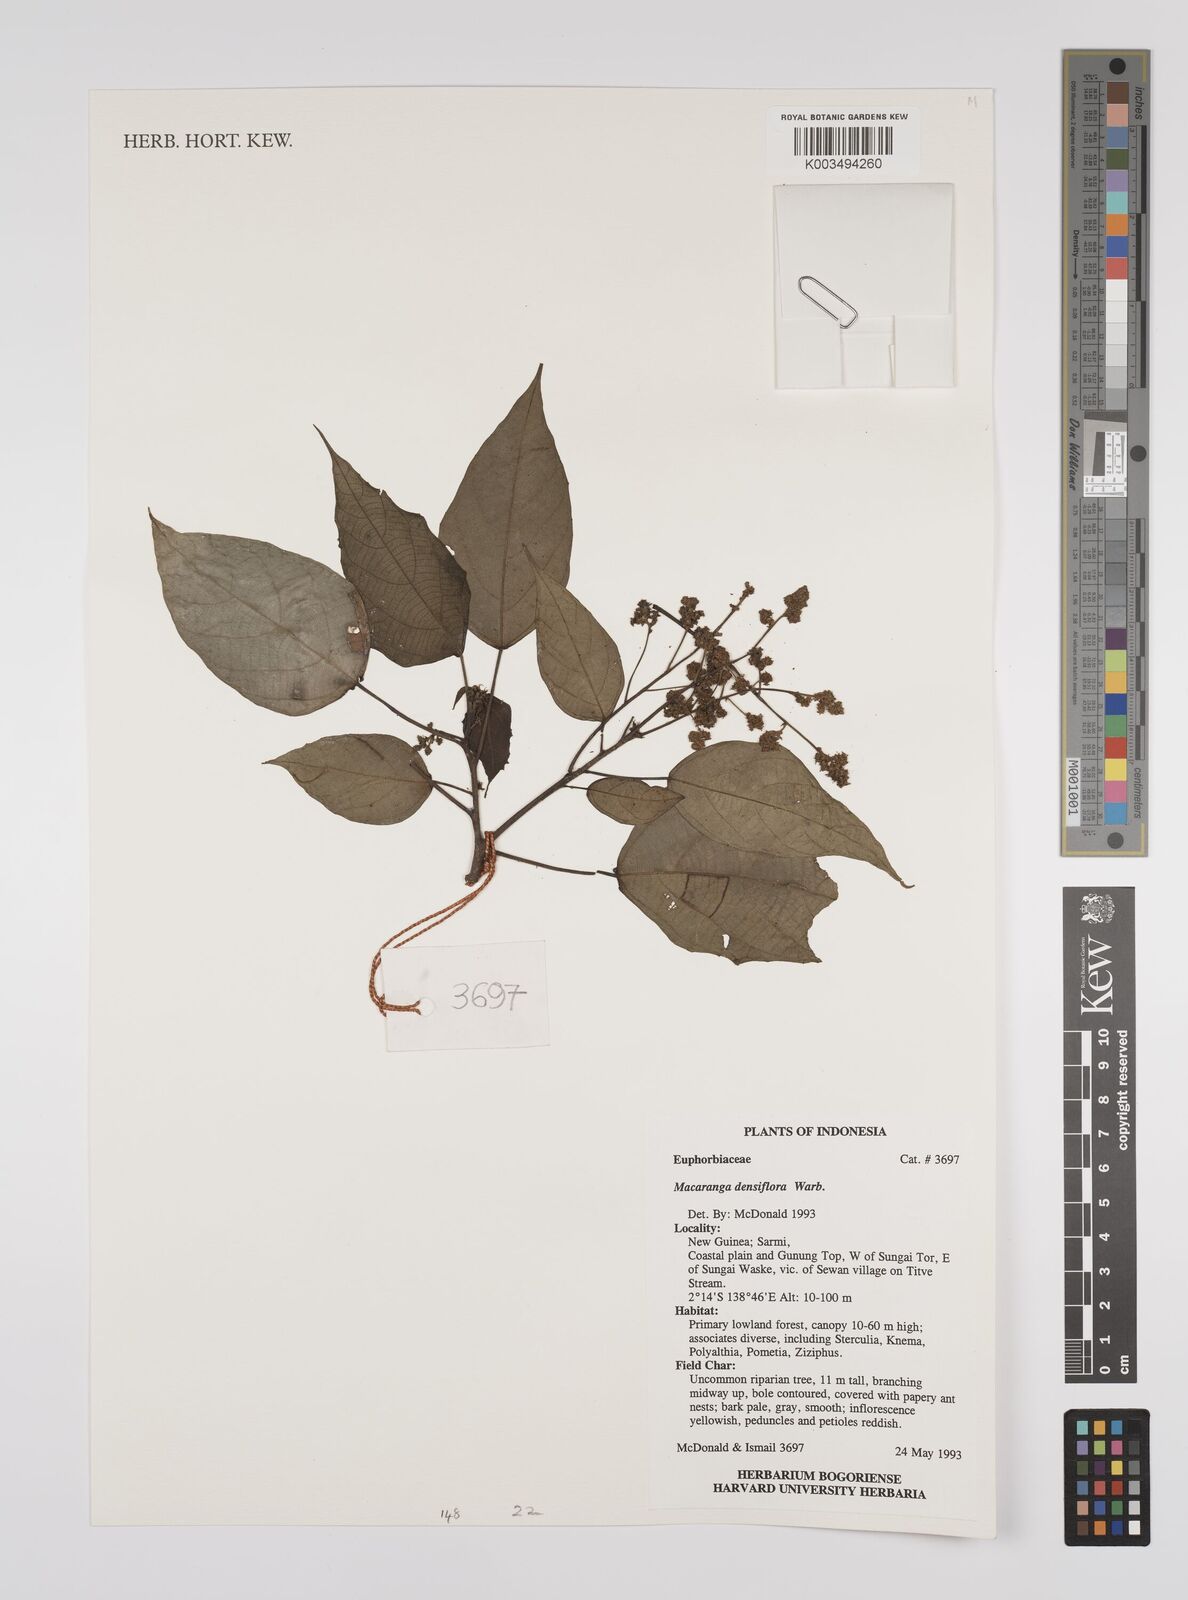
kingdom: Plantae
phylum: Tracheophyta
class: Magnoliopsida
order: Malpighiales
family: Euphorbiaceae
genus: Macaranga
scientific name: Macaranga densiflora
